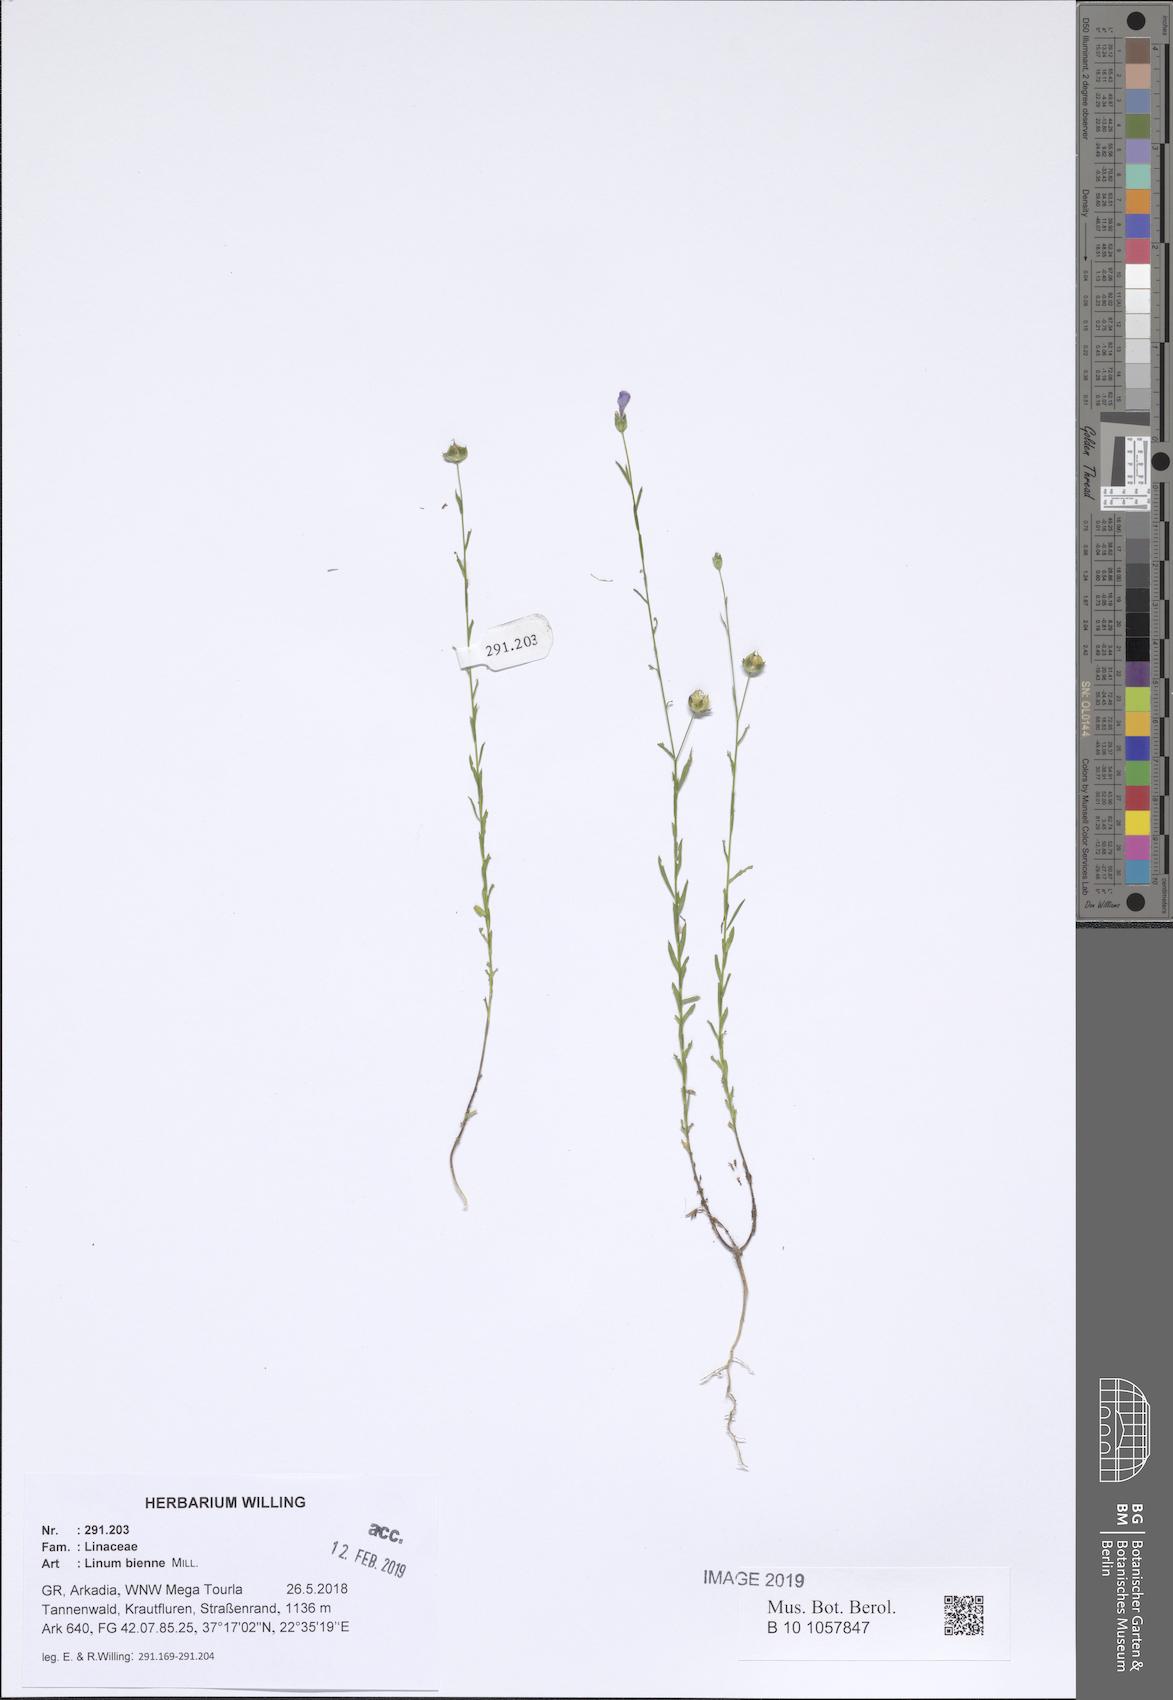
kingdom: Plantae
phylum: Tracheophyta
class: Magnoliopsida
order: Malpighiales
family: Linaceae
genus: Linum
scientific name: Linum bienne
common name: Pale flax
